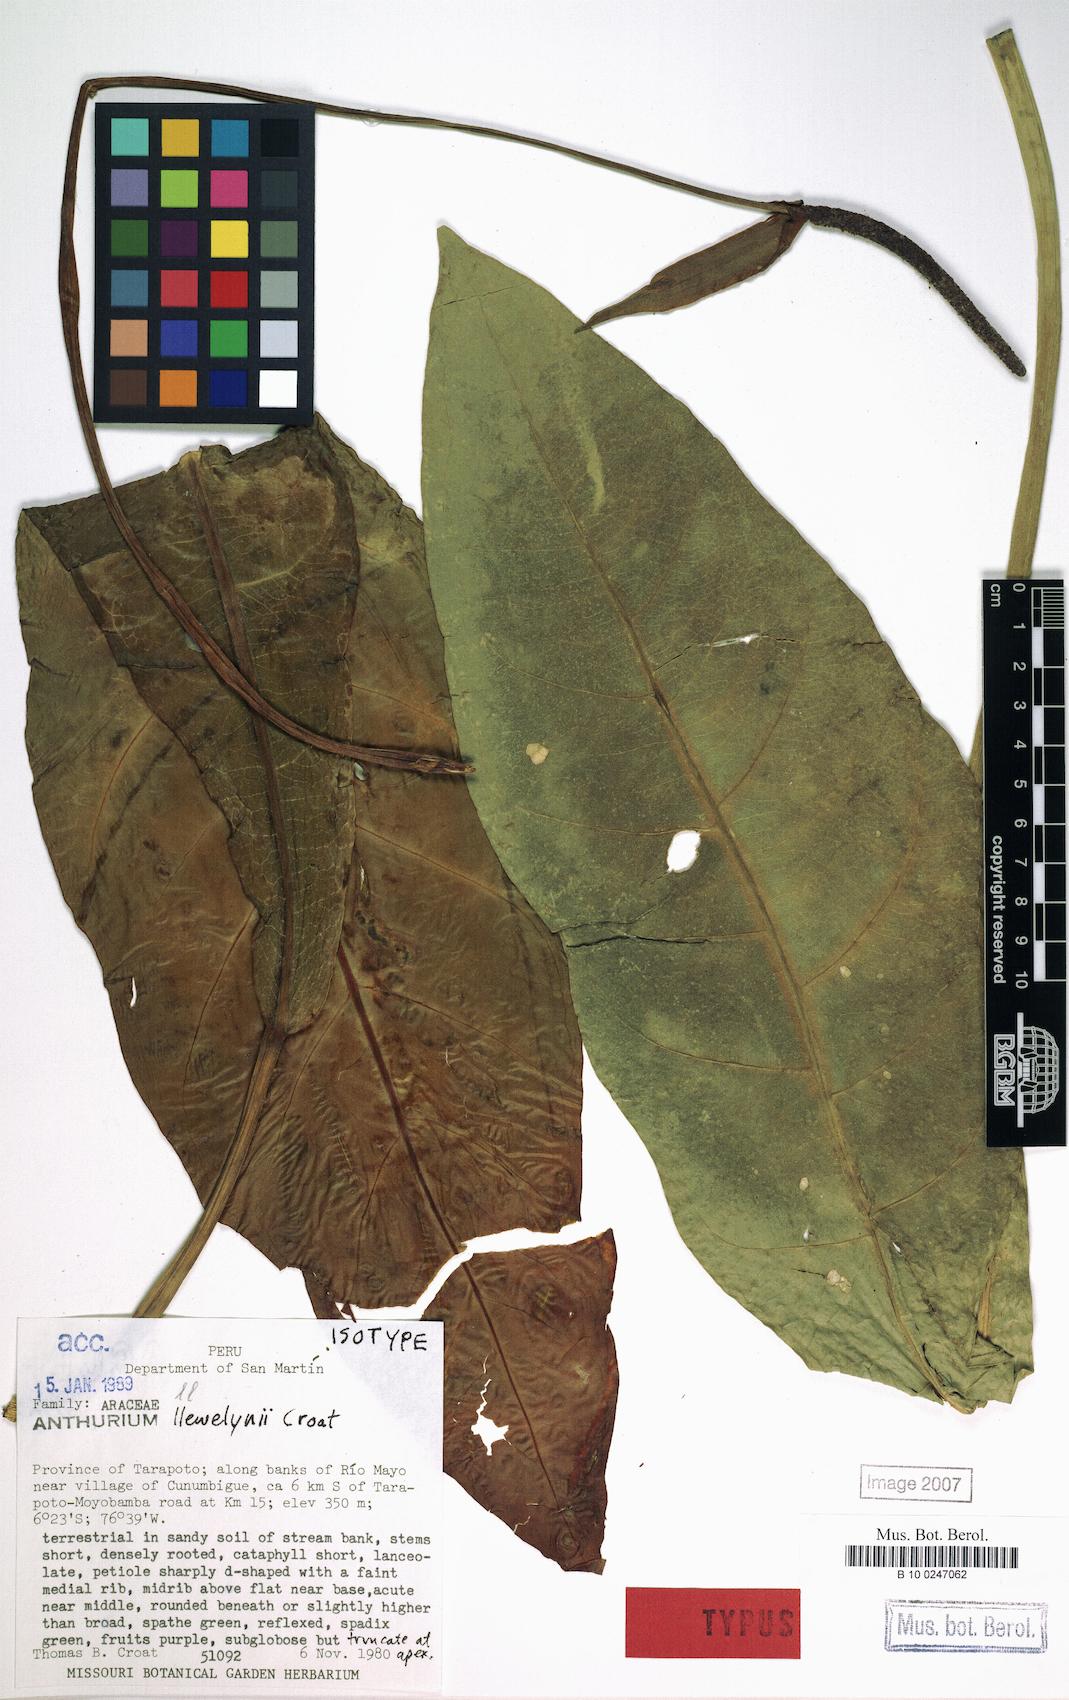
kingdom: Plantae
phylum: Tracheophyta
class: Liliopsida
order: Alismatales
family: Araceae
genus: Anthurium
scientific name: Anthurium llewellynii
